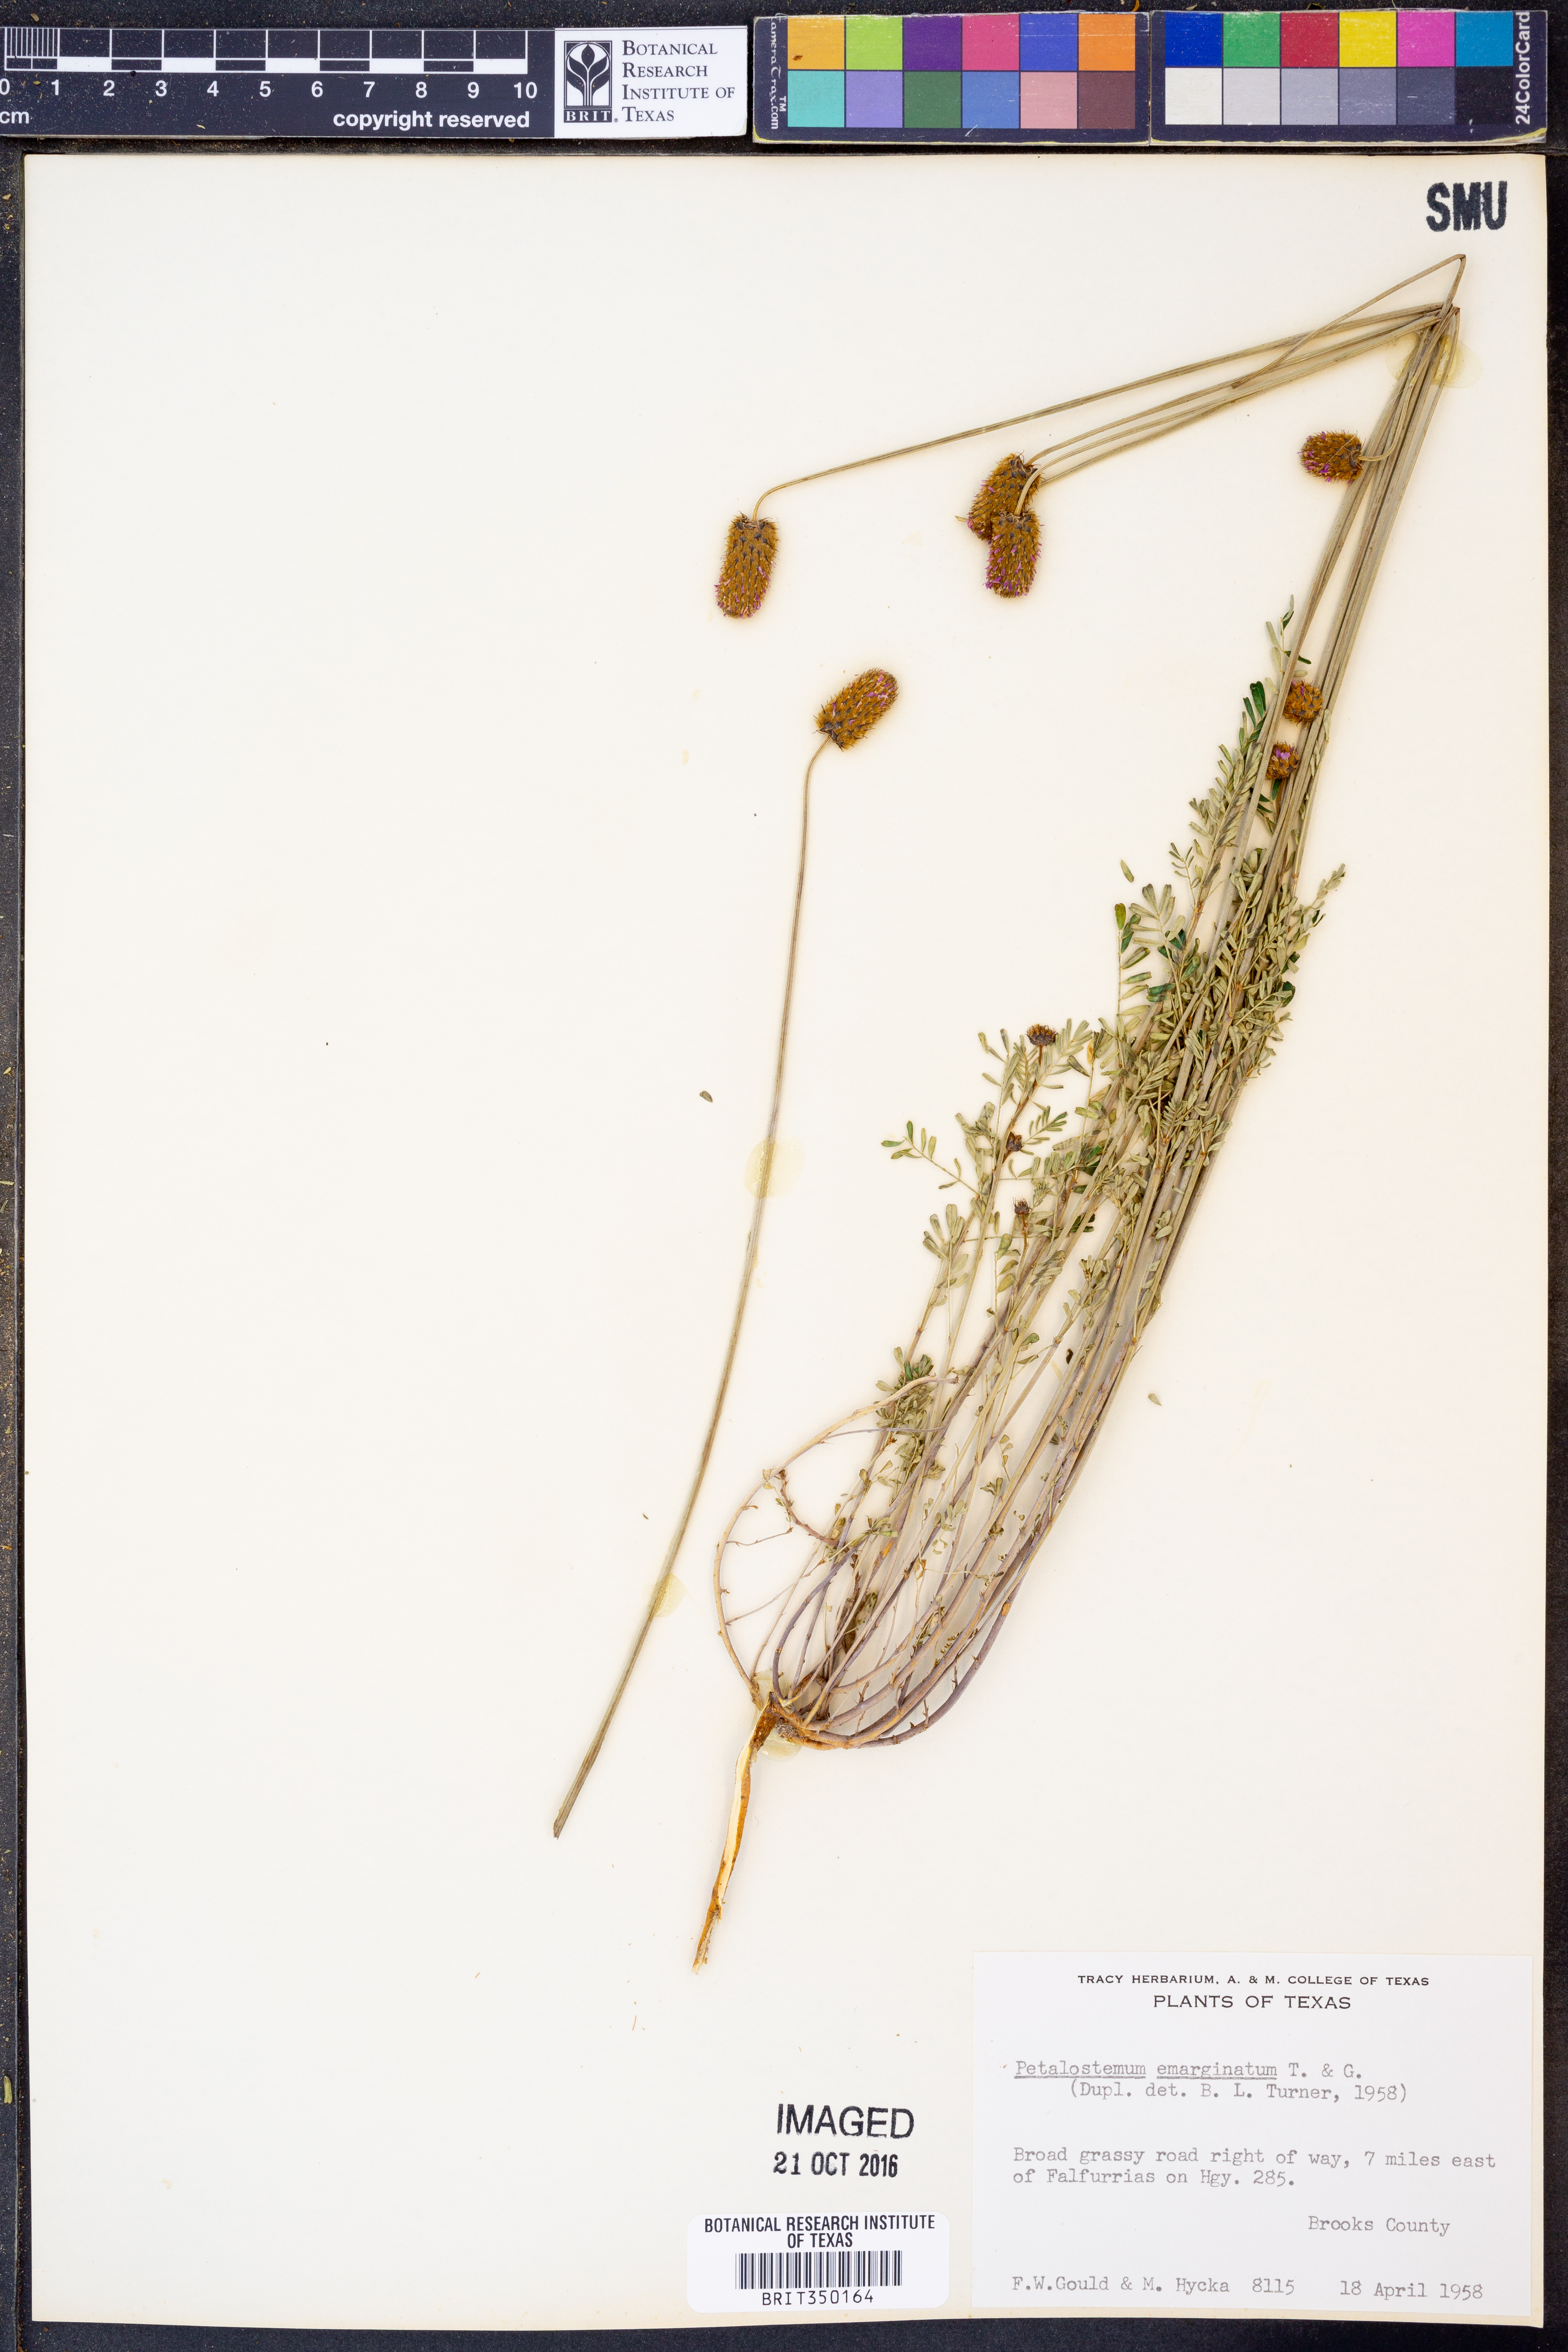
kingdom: Plantae
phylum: Tracheophyta
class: Magnoliopsida
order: Fabales
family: Fabaceae
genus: Dalea
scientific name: Dalea emarginata
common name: Wedgeleaf prairie clover
